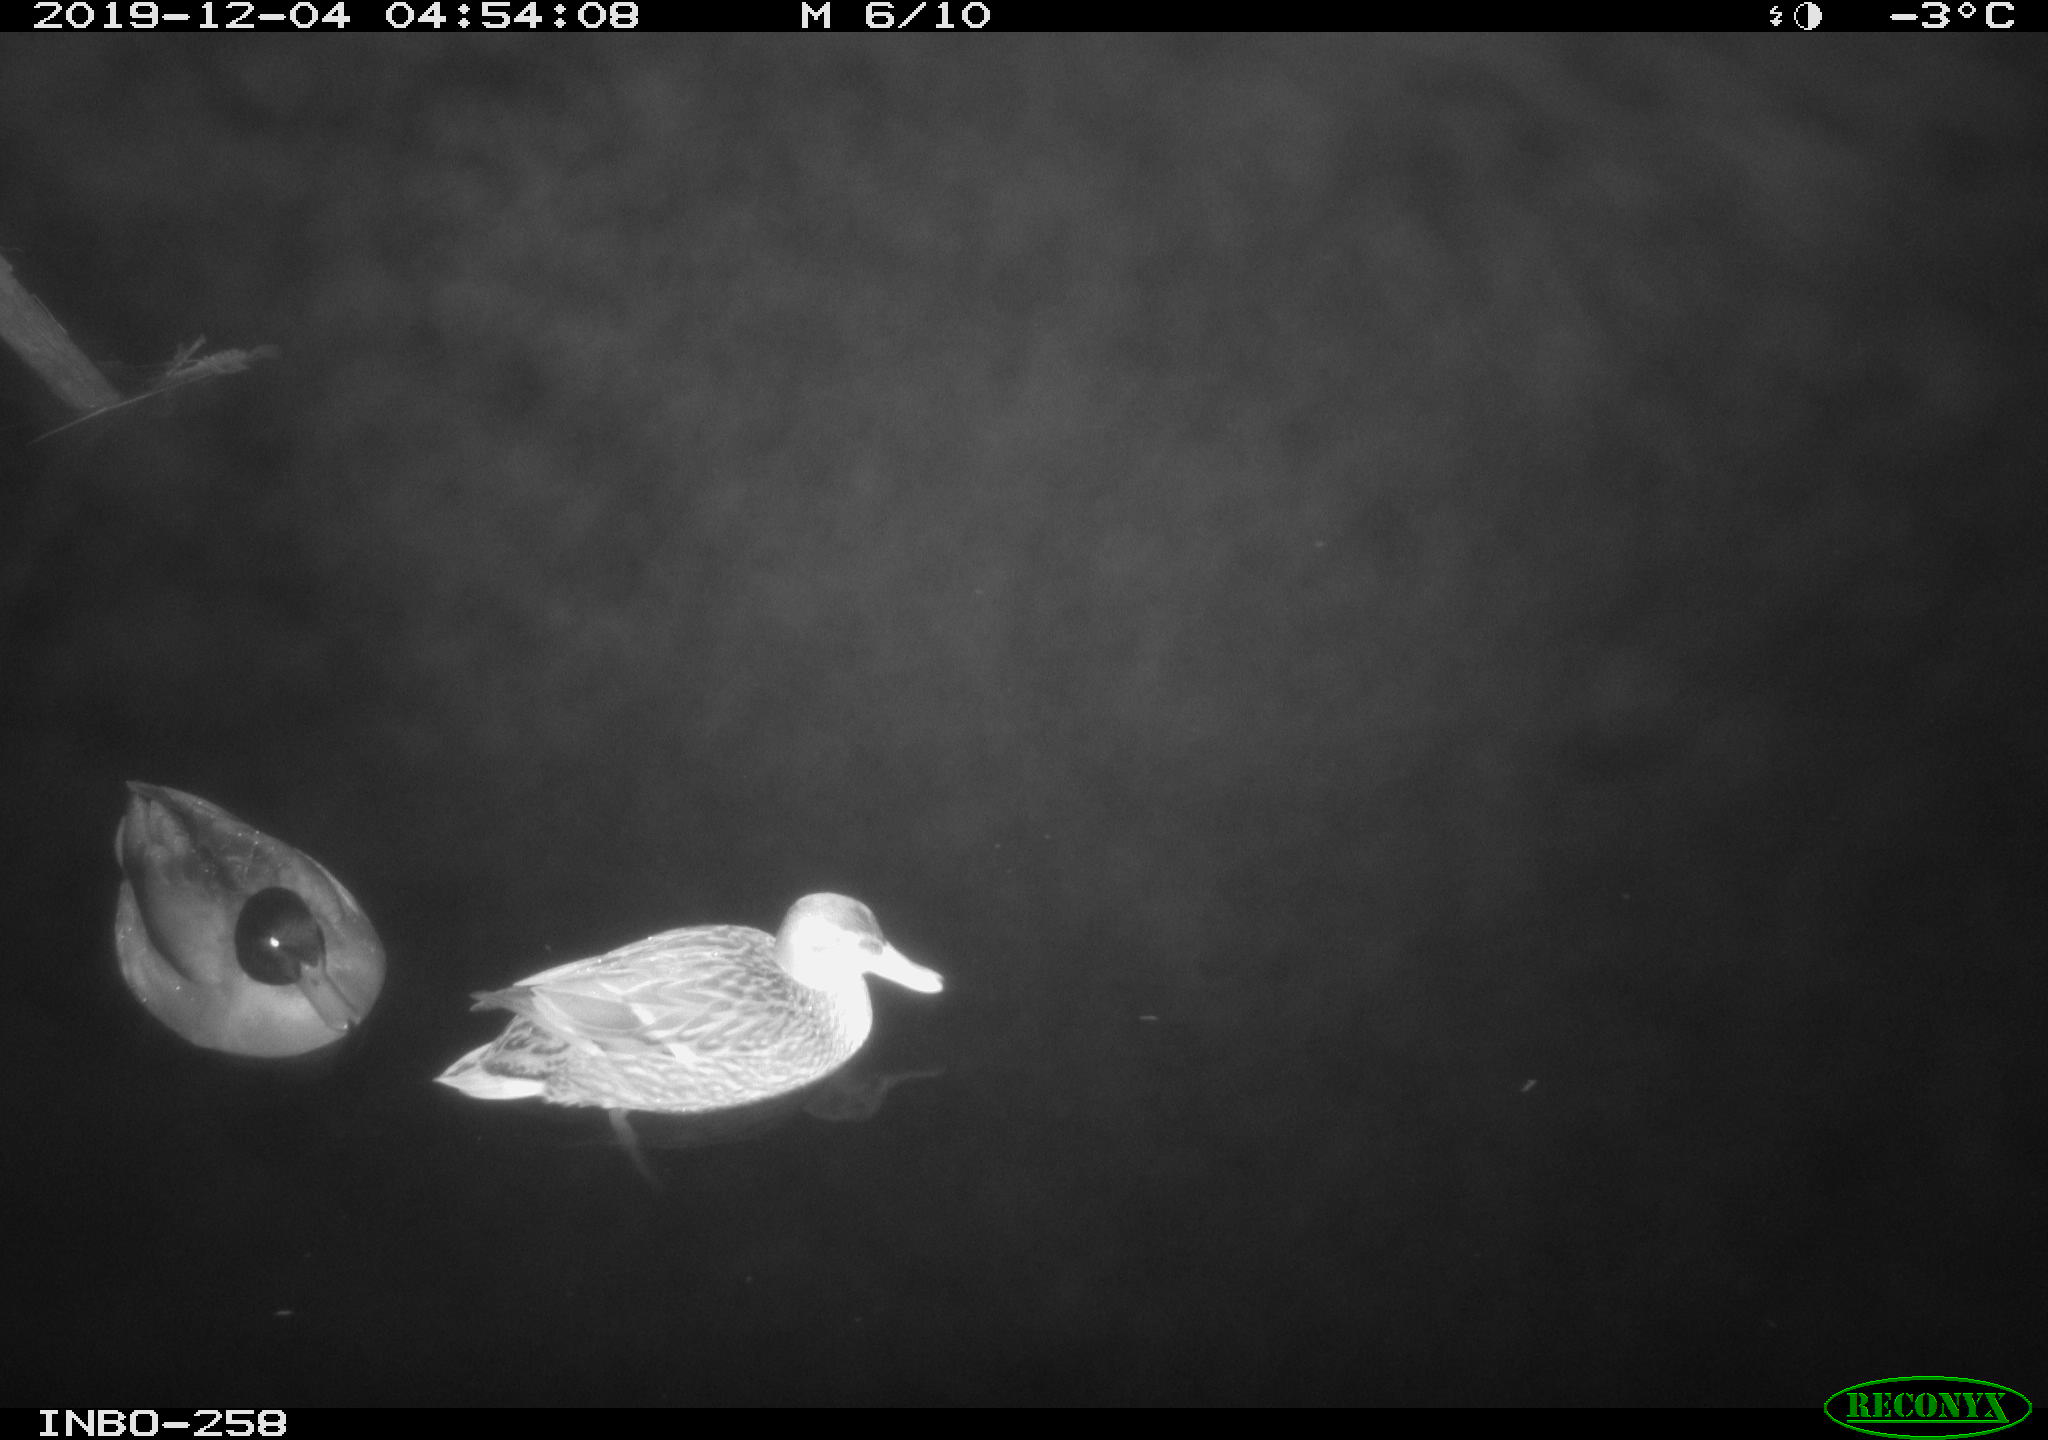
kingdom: Animalia
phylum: Chordata
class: Aves
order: Anseriformes
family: Anatidae
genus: Anas
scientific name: Anas platyrhynchos
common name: Mallard
